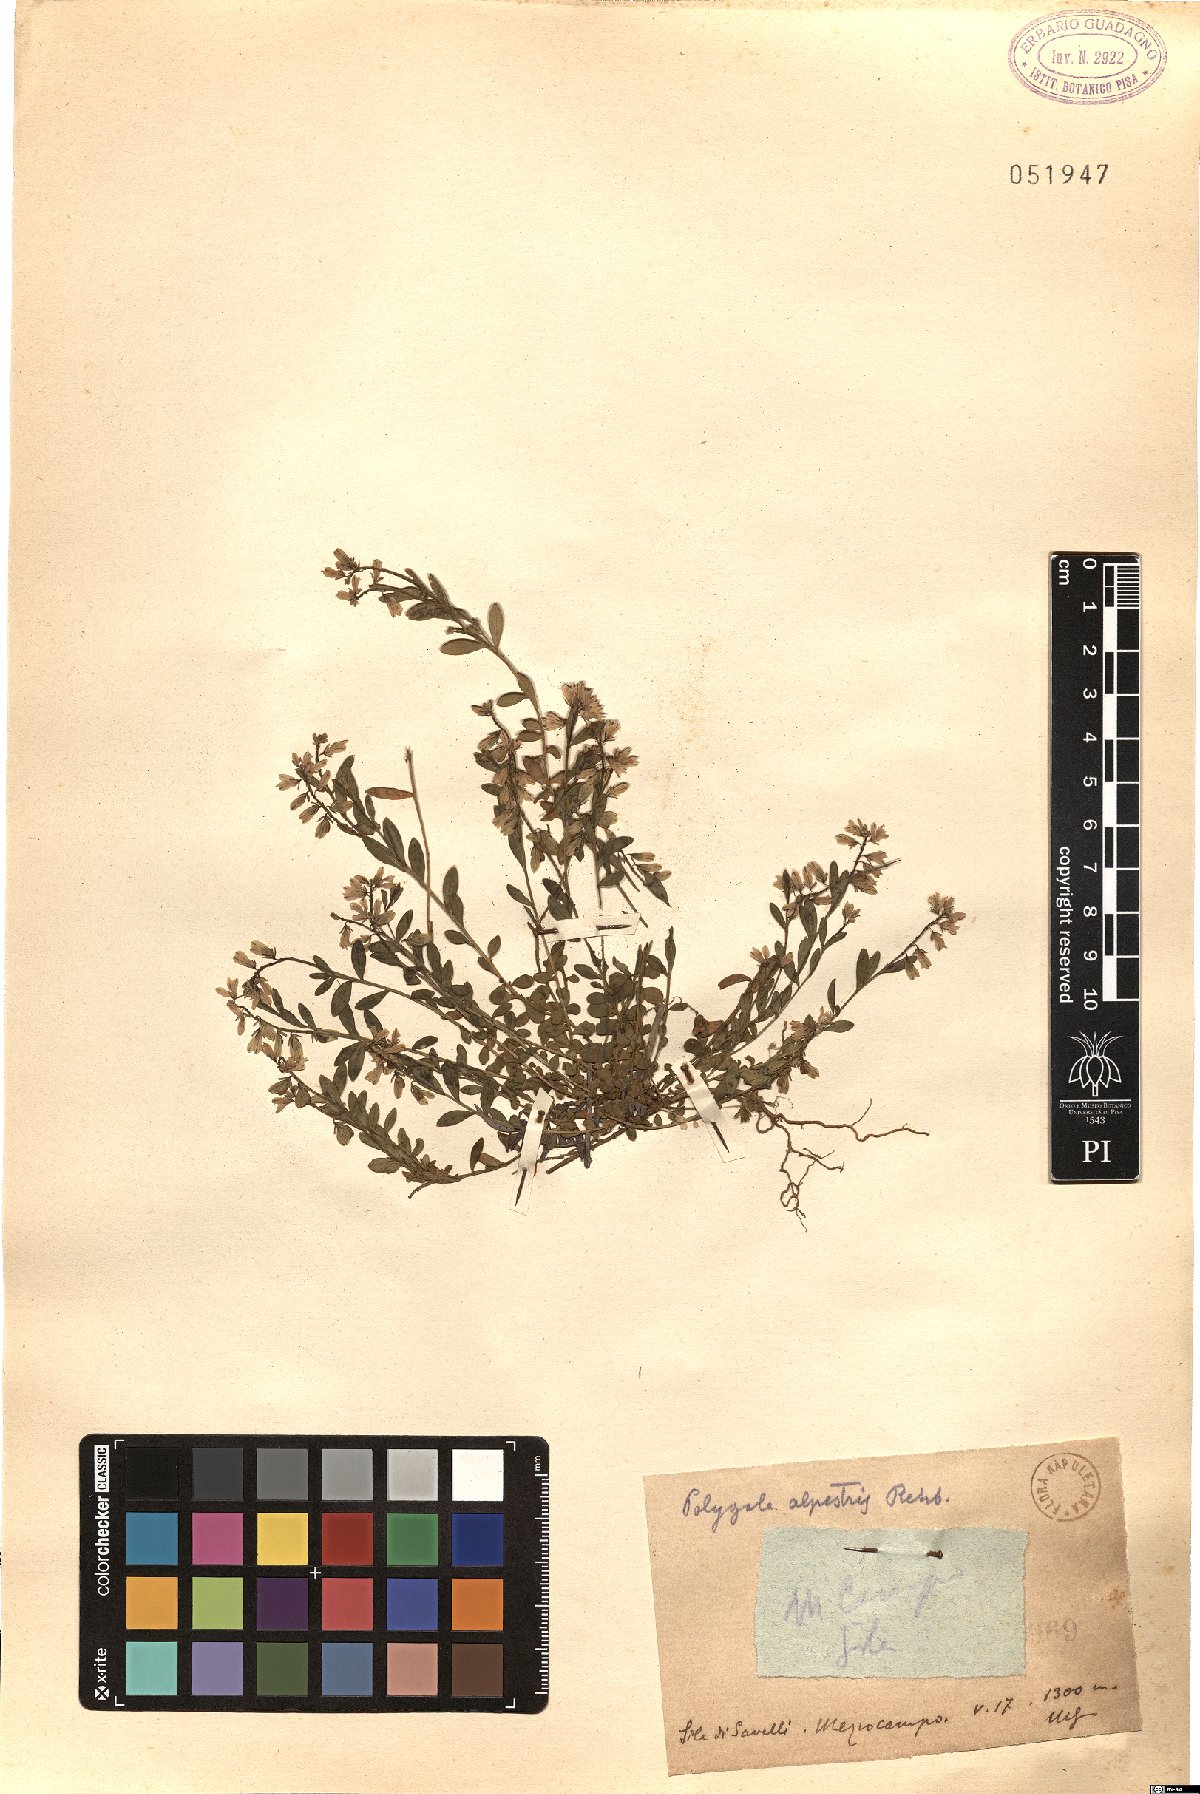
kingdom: Plantae
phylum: Tracheophyta
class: Magnoliopsida
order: Fabales
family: Polygalaceae
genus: Polygala
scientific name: Polygala alpestris
